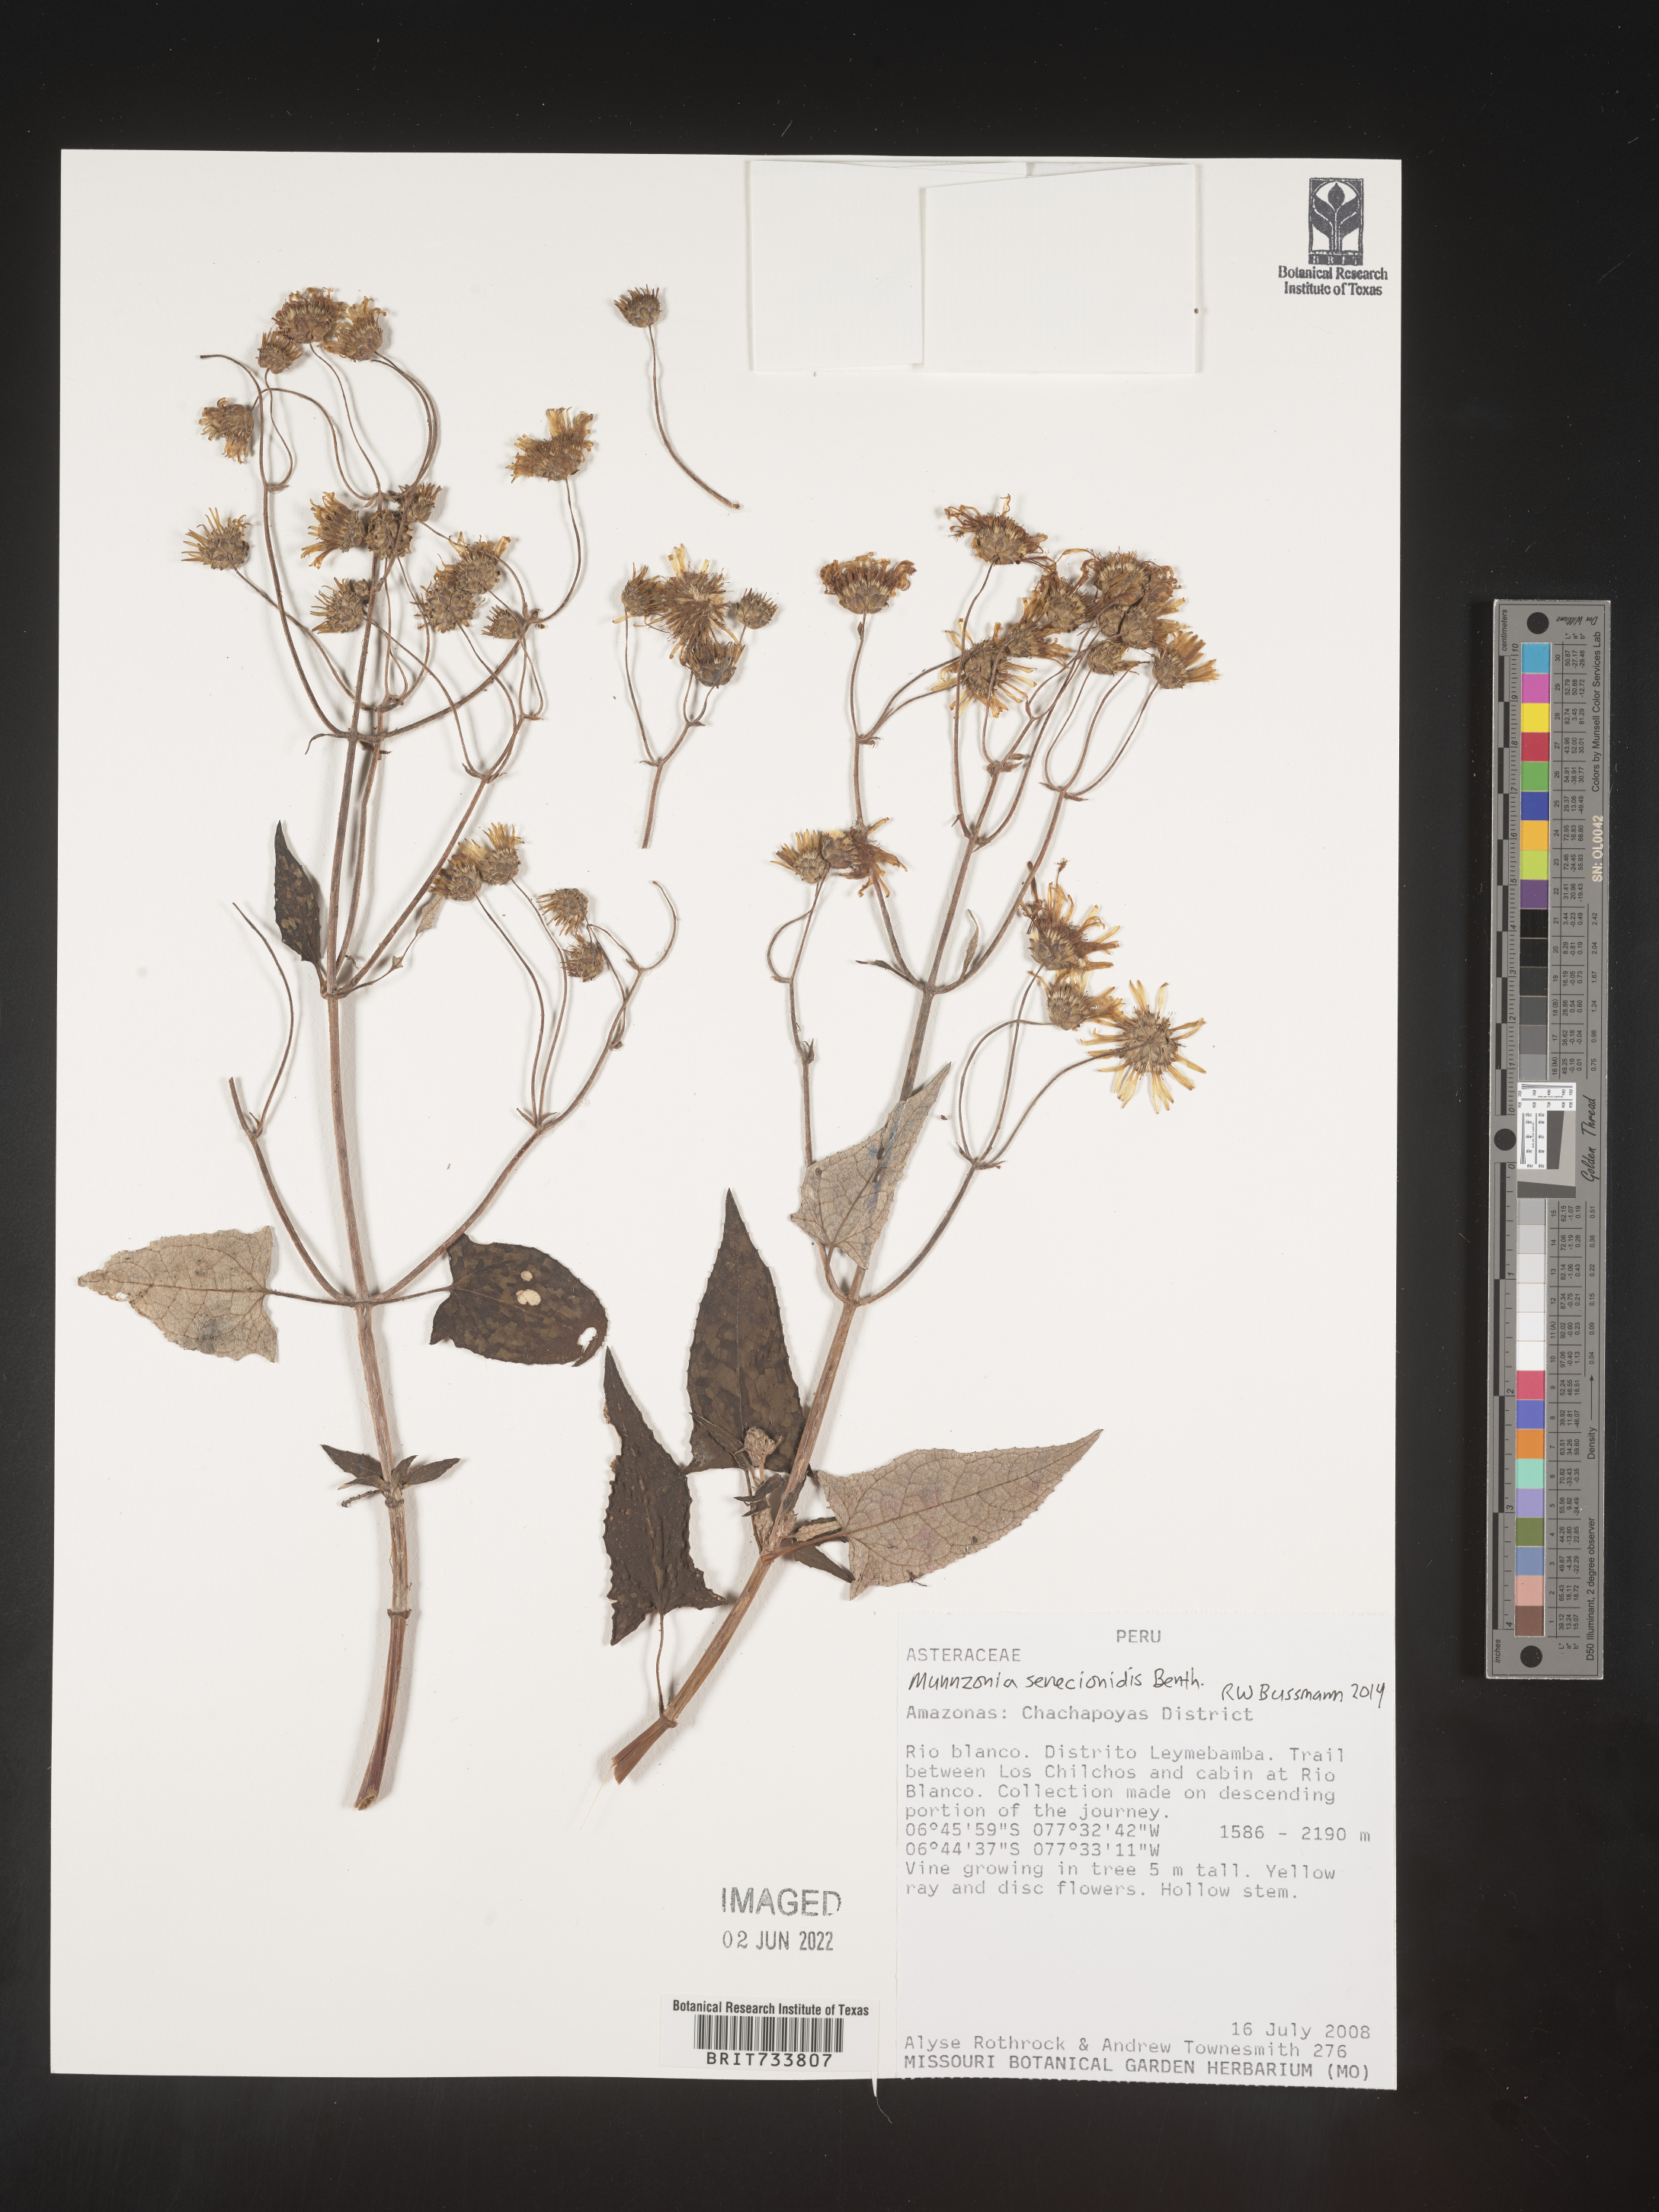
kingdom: Plantae
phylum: Tracheophyta
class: Magnoliopsida
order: Asterales
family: Asteraceae
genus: Munnozia
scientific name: Munnozia
